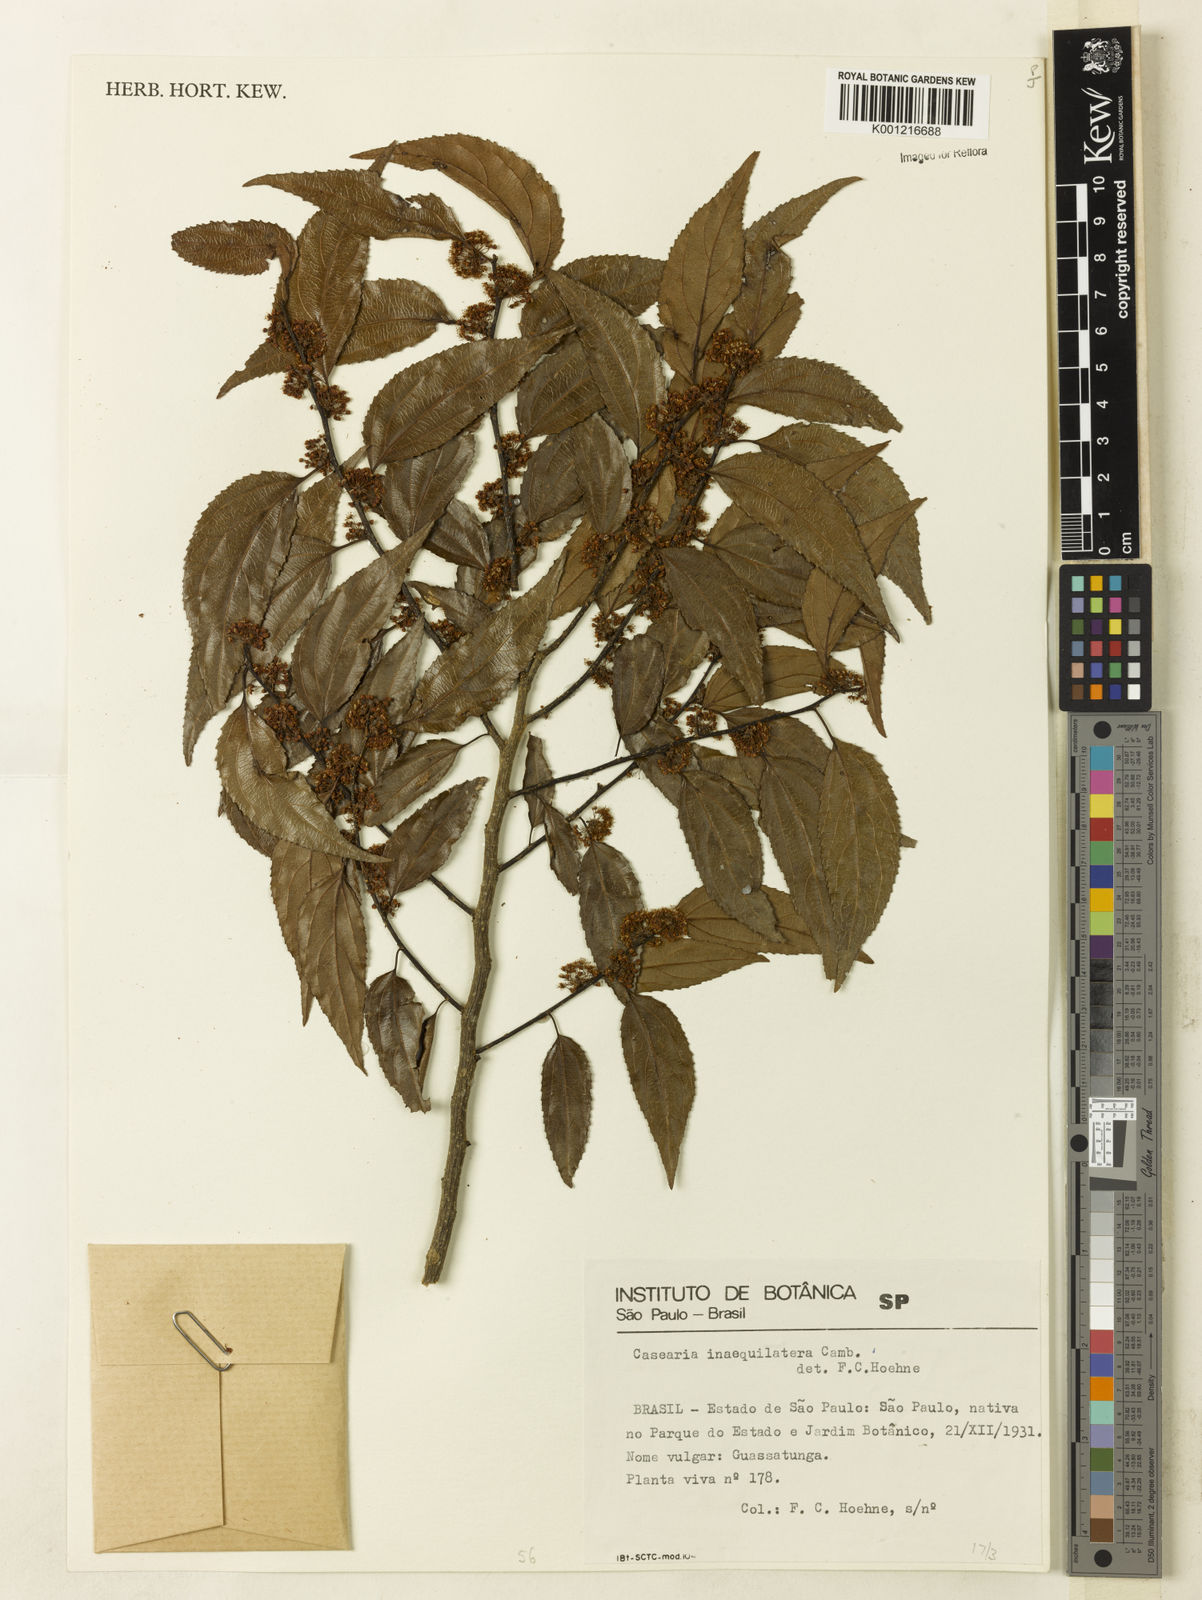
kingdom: Plantae
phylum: Tracheophyta
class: Magnoliopsida
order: Malpighiales
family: Salicaceae
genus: Casearia
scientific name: Casearia obliqua
